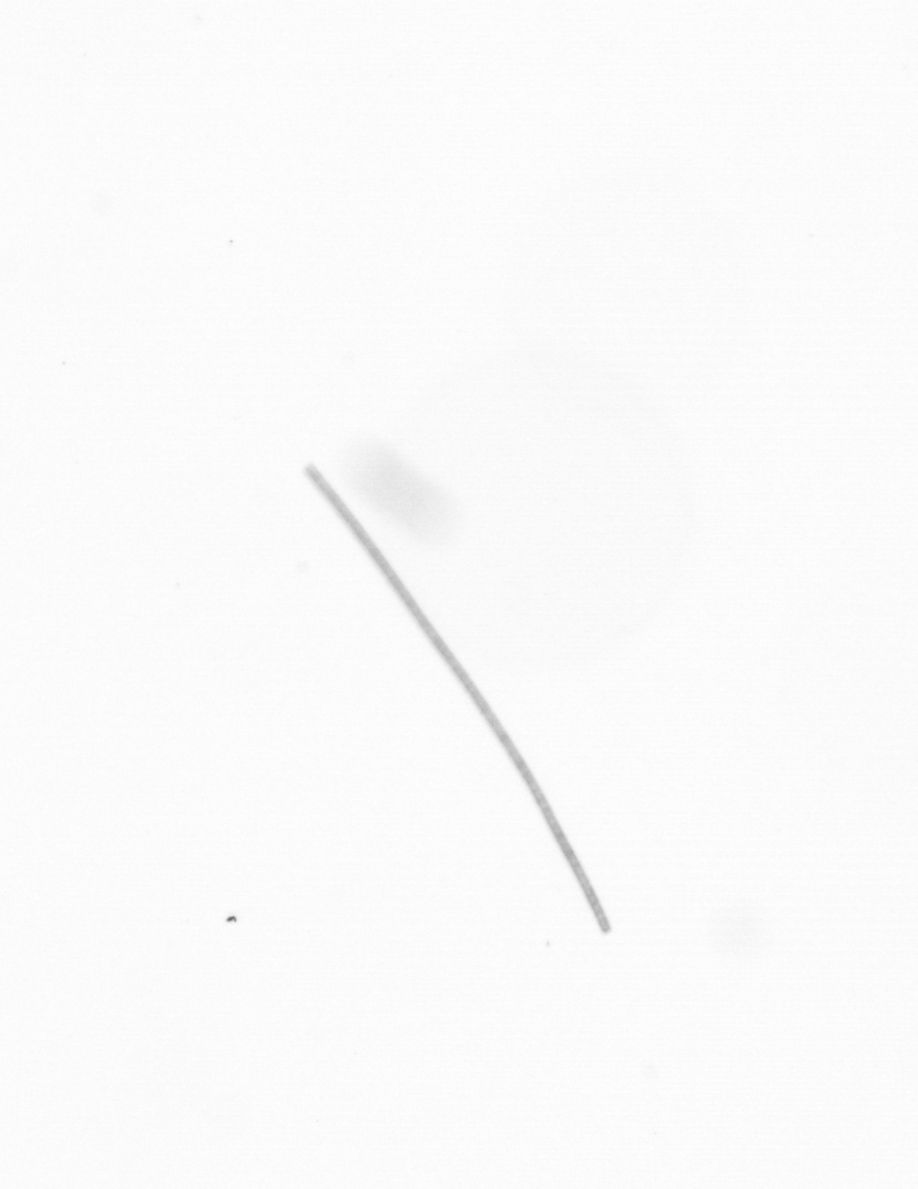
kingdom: Chromista
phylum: Ochrophyta
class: Bacillariophyceae
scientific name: Bacillariophyceae
